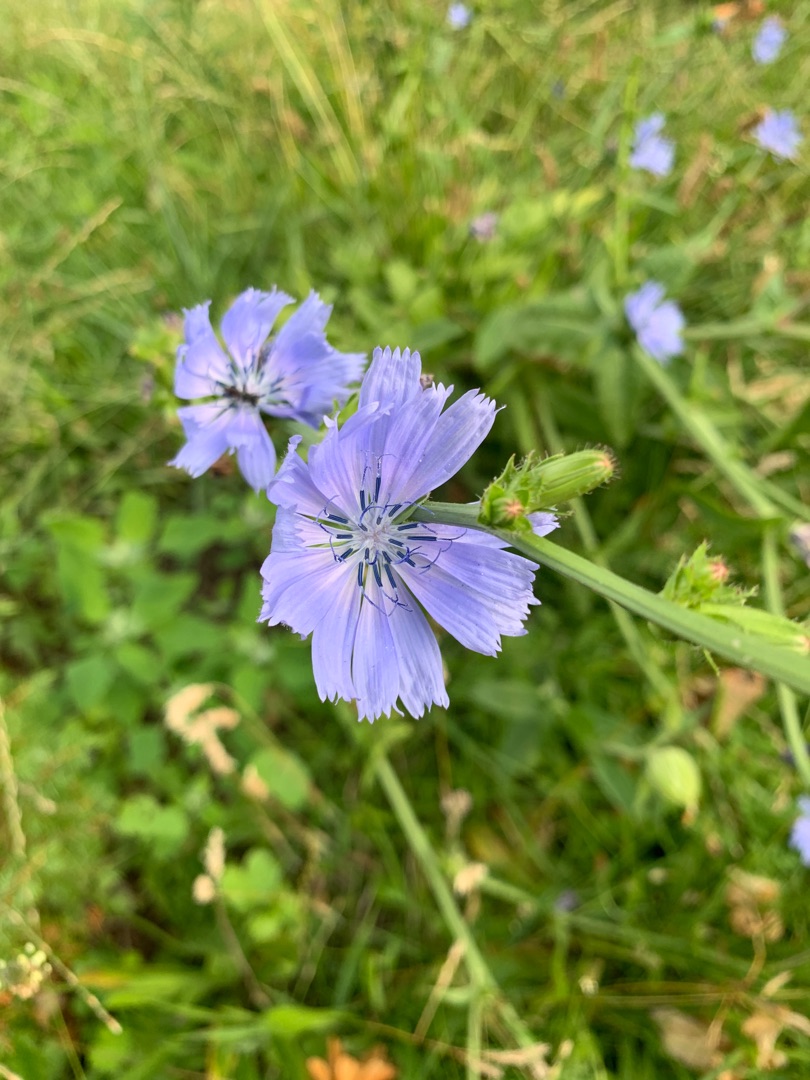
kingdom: Plantae
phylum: Tracheophyta
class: Magnoliopsida
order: Asterales
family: Asteraceae
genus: Cichorium
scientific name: Cichorium intybus
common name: Cikorie
